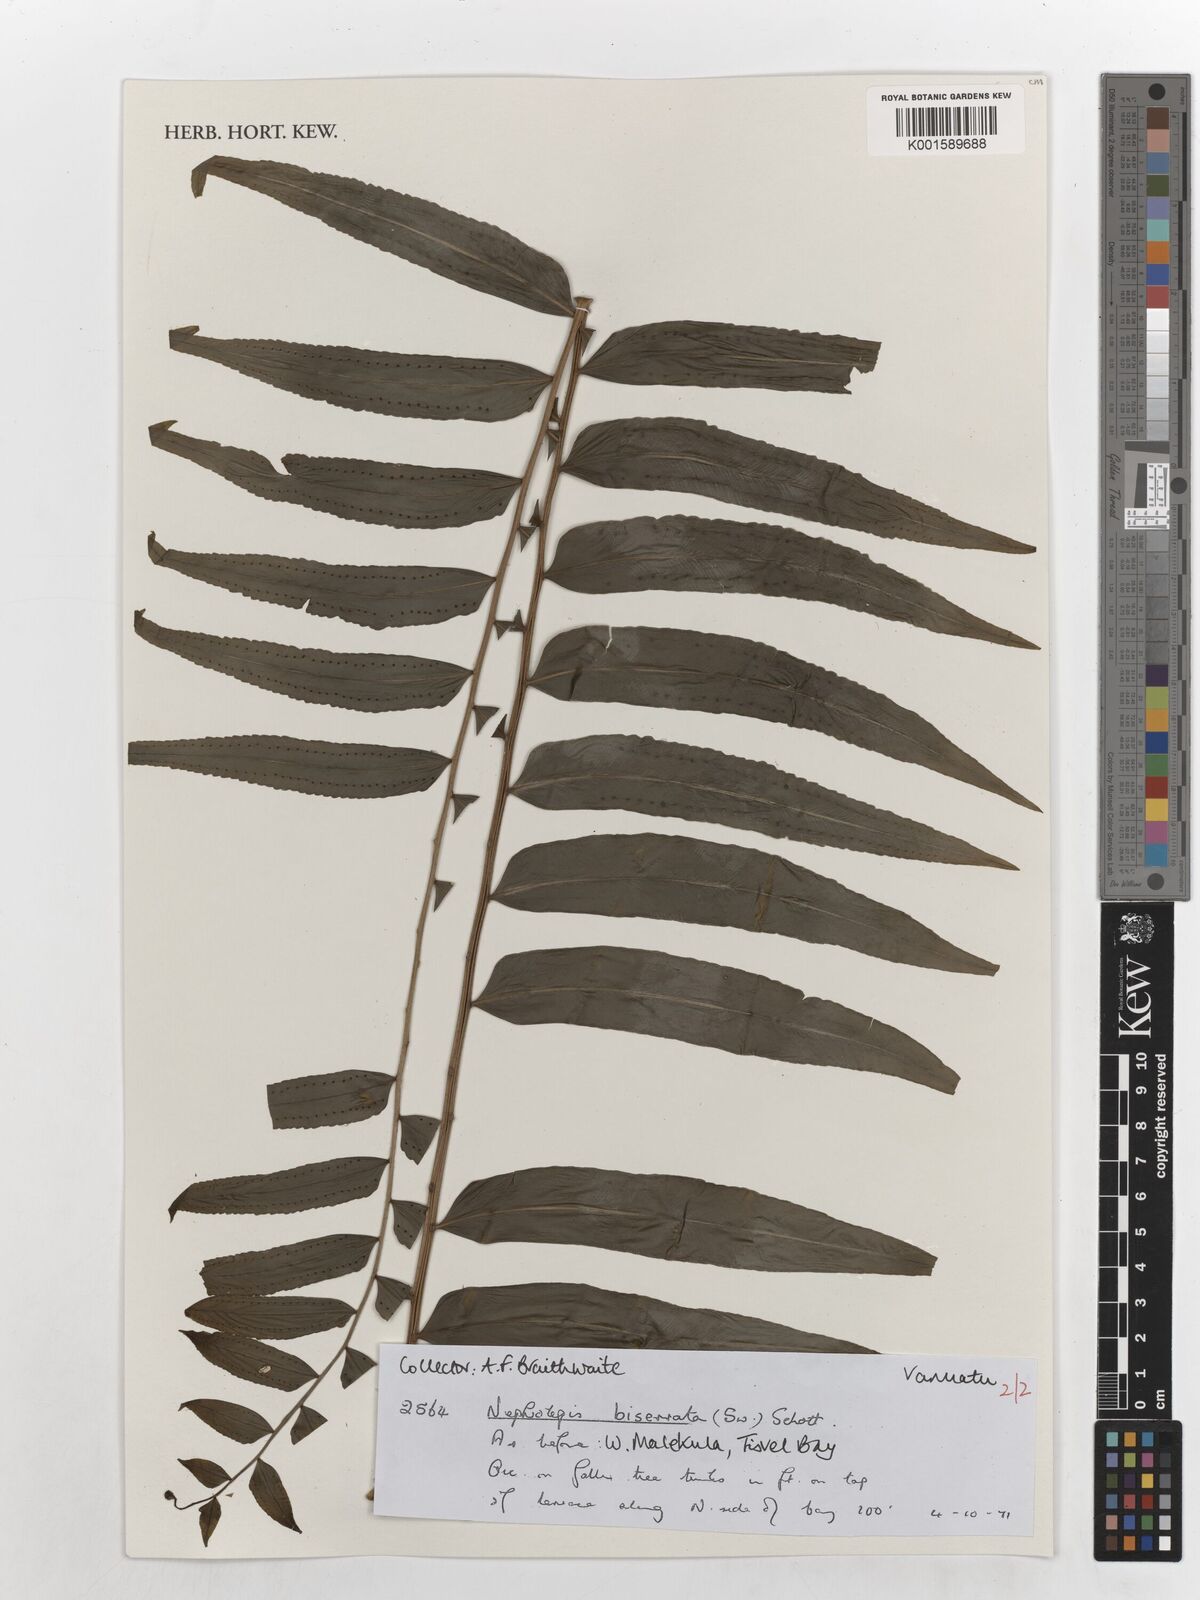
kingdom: Plantae
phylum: Tracheophyta
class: Polypodiopsida
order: Polypodiales
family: Nephrolepidaceae
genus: Nephrolepis
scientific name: Nephrolepis biserrata
